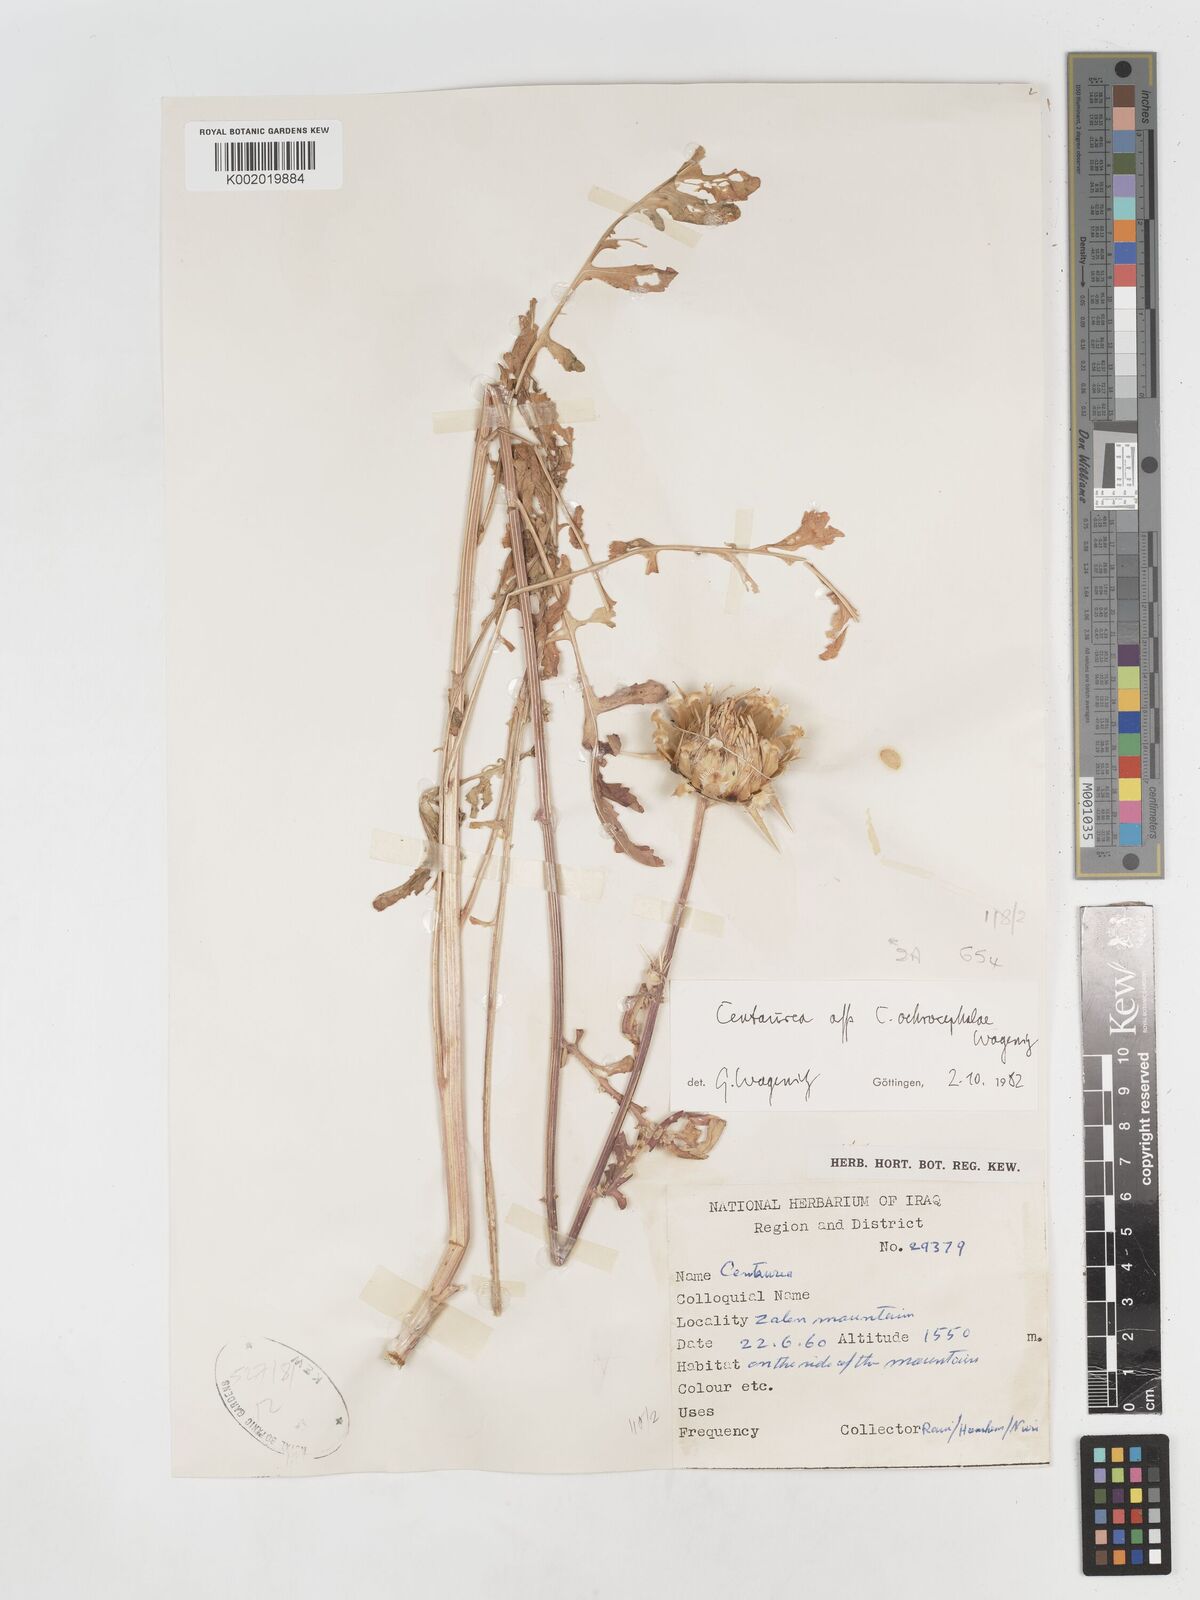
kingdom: Plantae
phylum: Tracheophyta
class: Magnoliopsida
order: Asterales
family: Asteraceae
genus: Centaurea
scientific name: Centaurea ochrocephala
